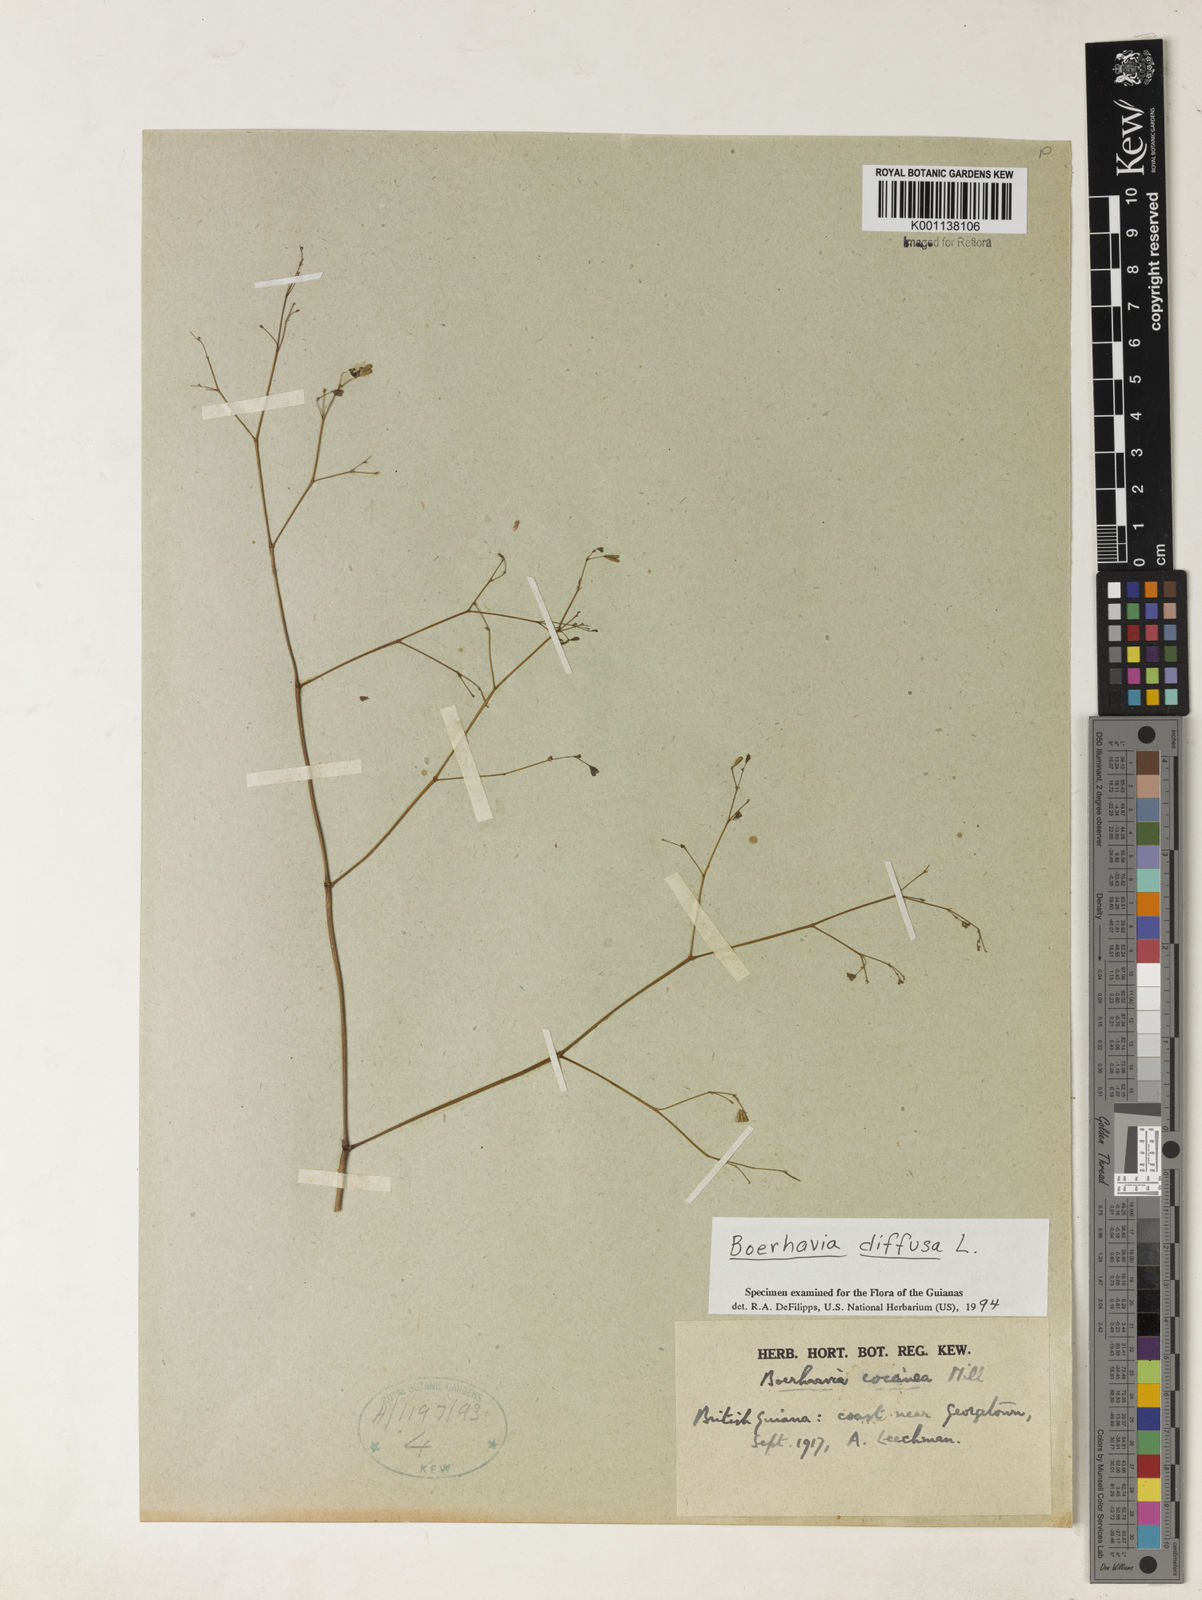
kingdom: Plantae
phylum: Tracheophyta
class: Magnoliopsida
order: Caryophyllales
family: Nyctaginaceae
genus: Boerhavia
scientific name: Boerhavia diffusa
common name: Red spiderling
